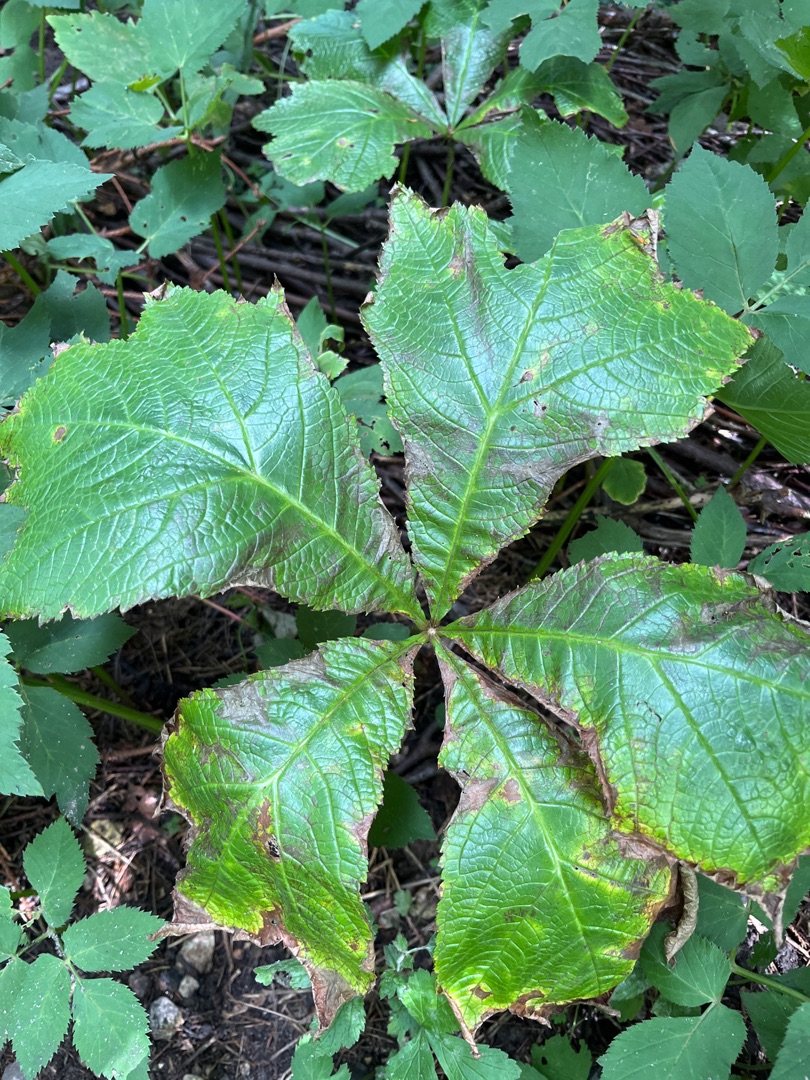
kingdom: Plantae
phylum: Tracheophyta
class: Magnoliopsida
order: Saxifragales
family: Saxifragaceae
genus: Rodgersia
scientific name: Rodgersia podophylla
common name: Stilket bronzeblad
